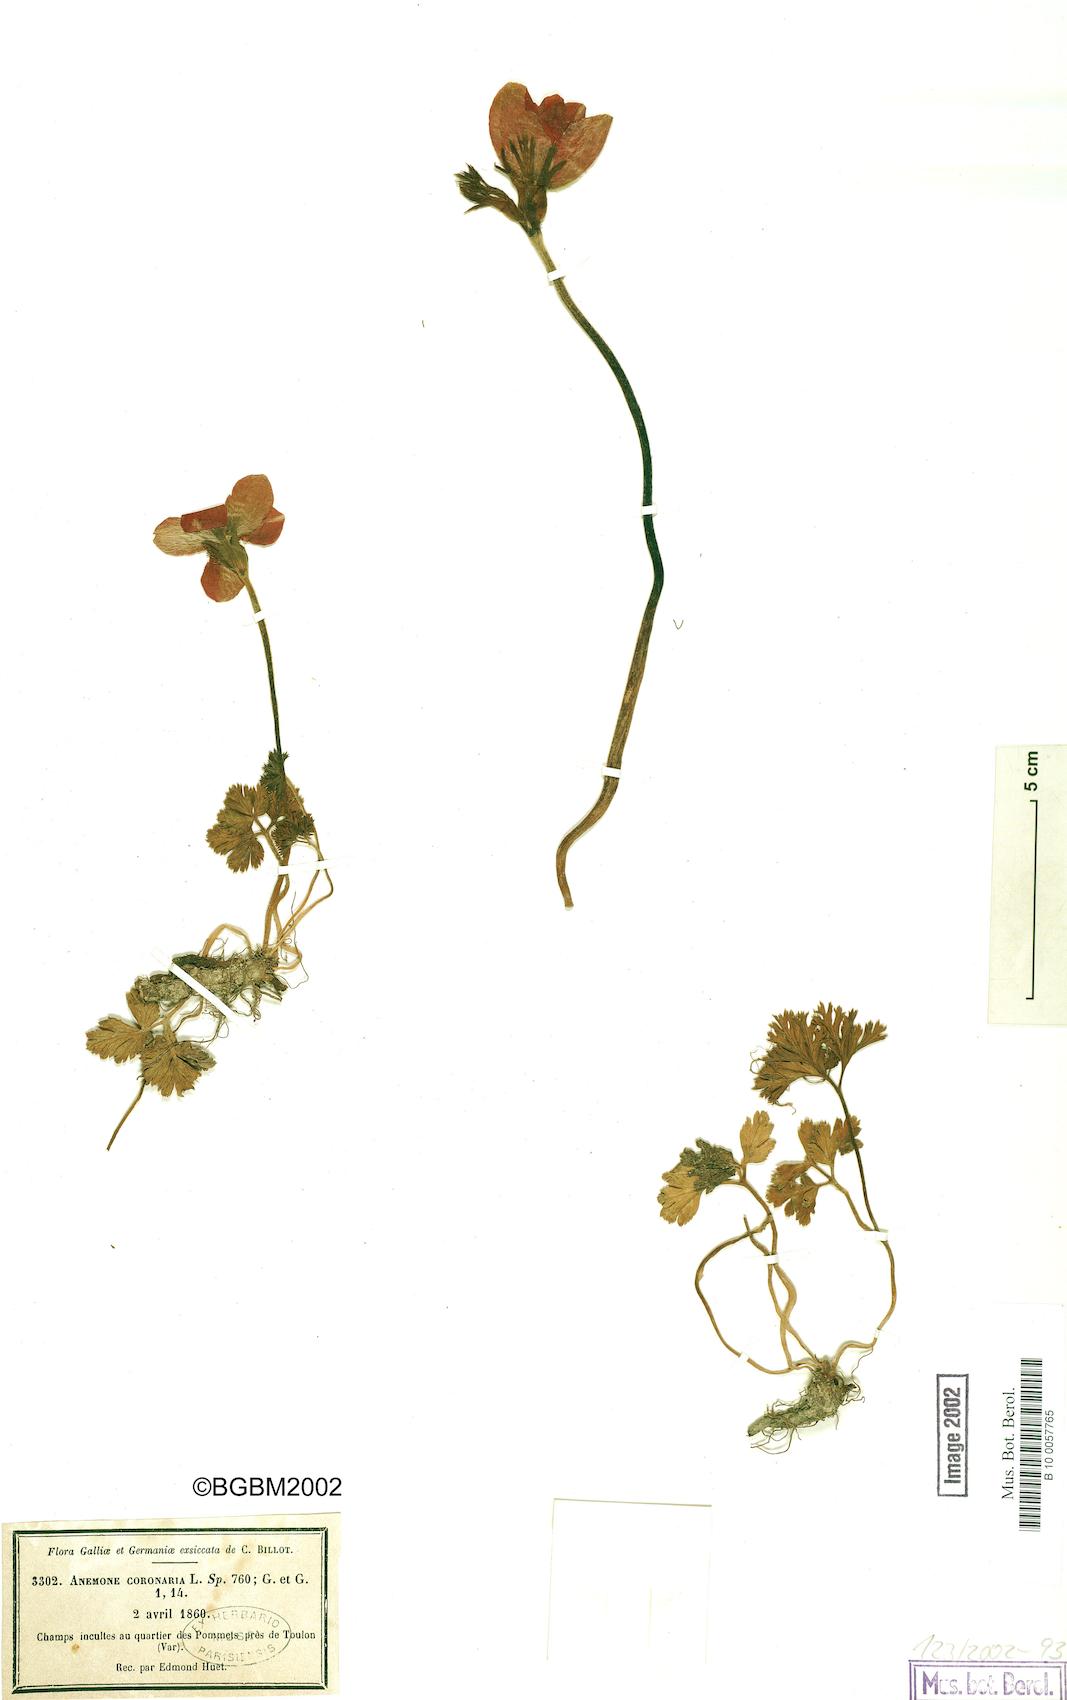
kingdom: Plantae
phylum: Tracheophyta
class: Magnoliopsida
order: Ranunculales
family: Ranunculaceae
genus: Anemone
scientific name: Anemone coronaria
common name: Poppy anemone
